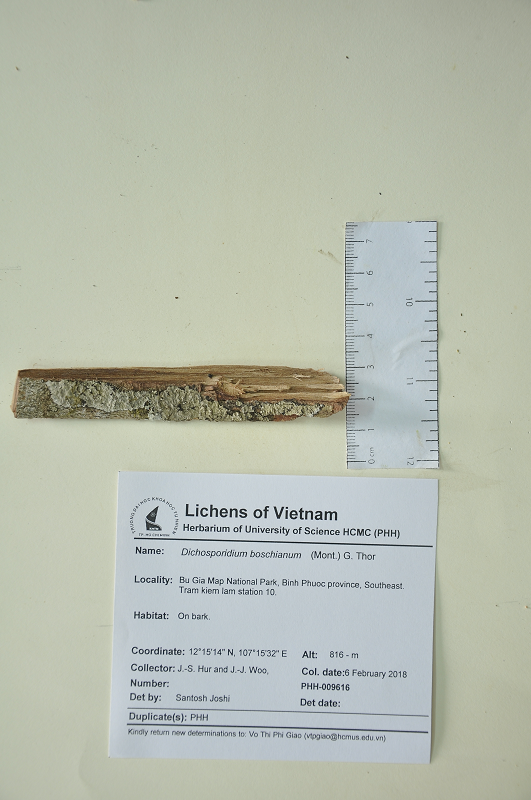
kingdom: Fungi
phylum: Ascomycota
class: Arthoniomycetes
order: Arthoniales
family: Roccellaceae
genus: Dichosporidium
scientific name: Dichosporidium boschianum
